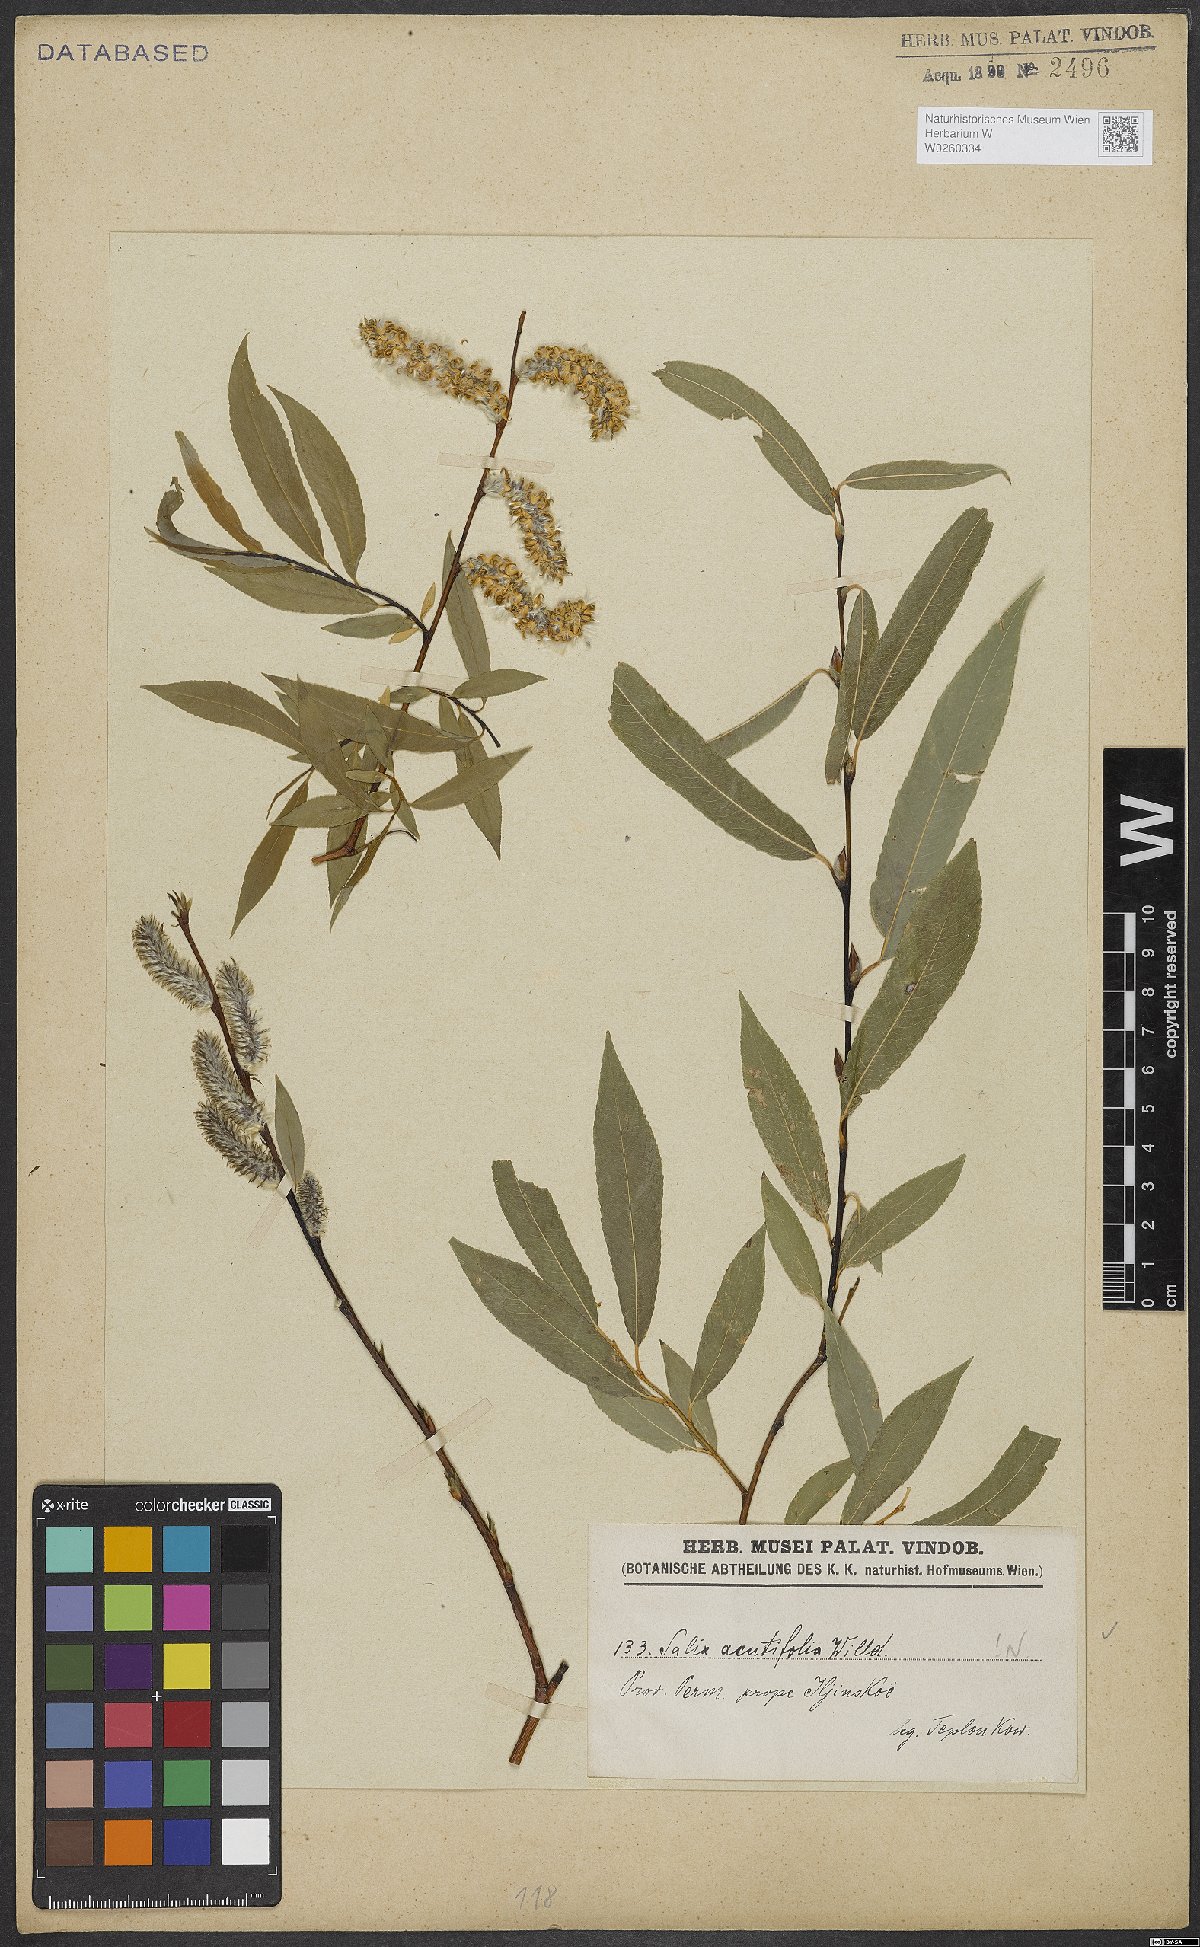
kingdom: Plantae
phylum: Tracheophyta
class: Magnoliopsida
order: Malpighiales
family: Salicaceae
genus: Salix
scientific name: Salix acutifolia
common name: Siberian violet-willow
